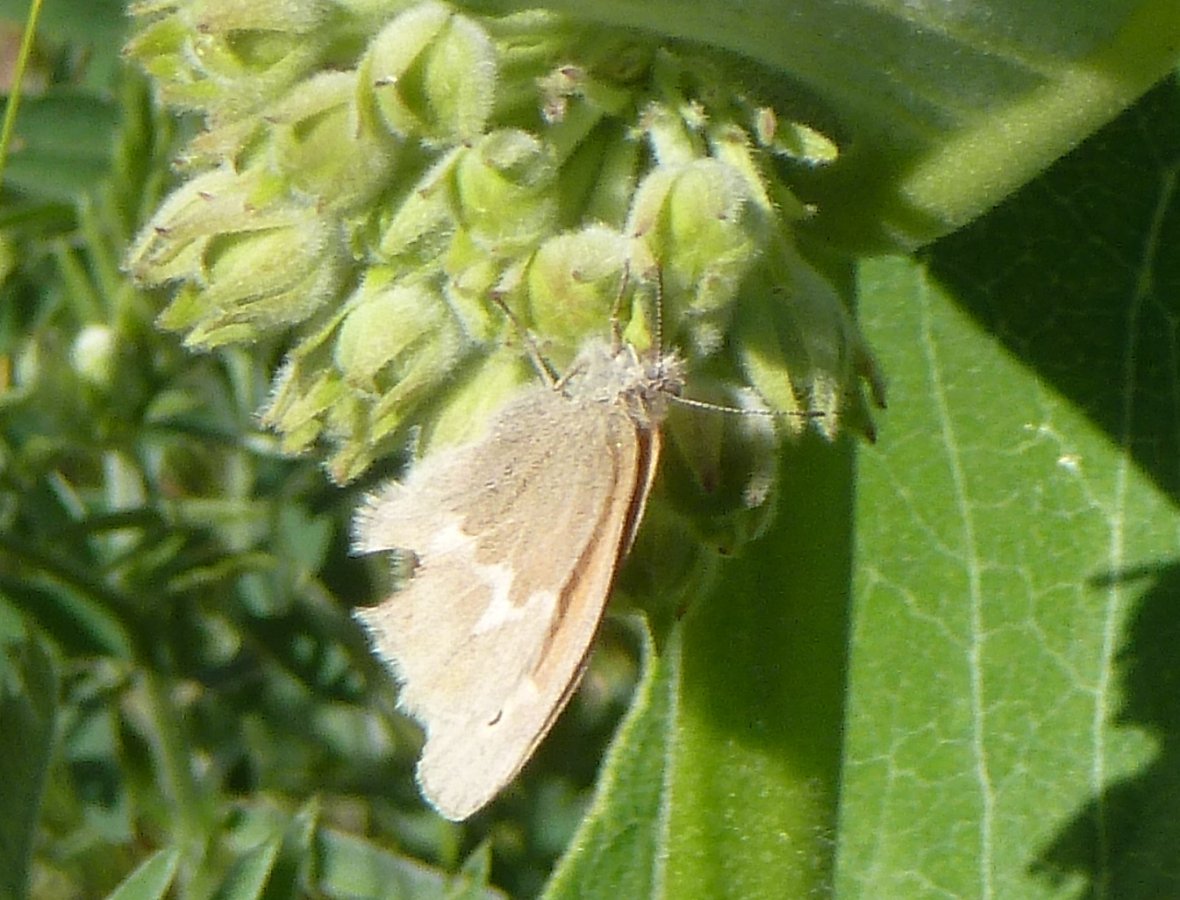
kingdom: Animalia
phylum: Arthropoda
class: Insecta
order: Lepidoptera
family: Nymphalidae
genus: Coenonympha
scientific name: Coenonympha tullia
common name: Large Heath
